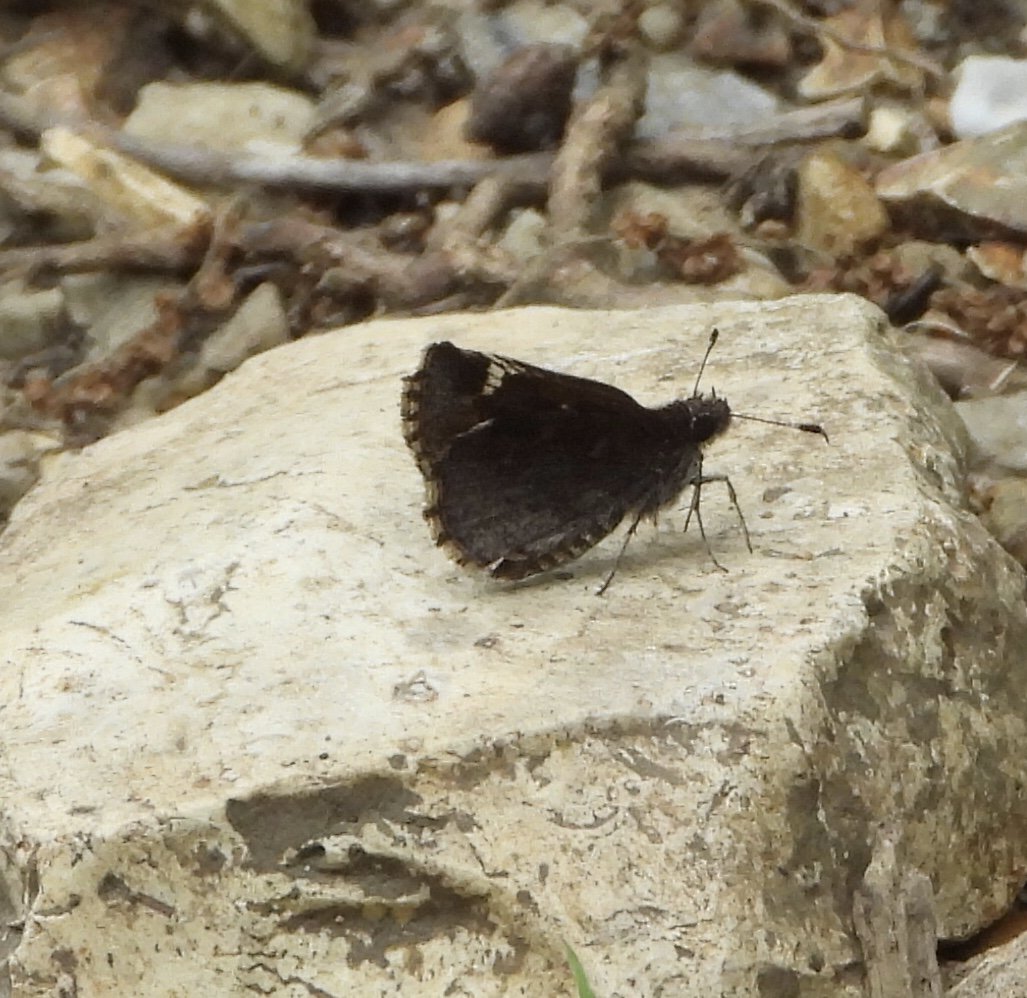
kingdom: Animalia
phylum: Arthropoda
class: Insecta
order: Lepidoptera
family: Hesperiidae
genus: Mastor
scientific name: Mastor vialis
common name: Common Roadside-Skipper
